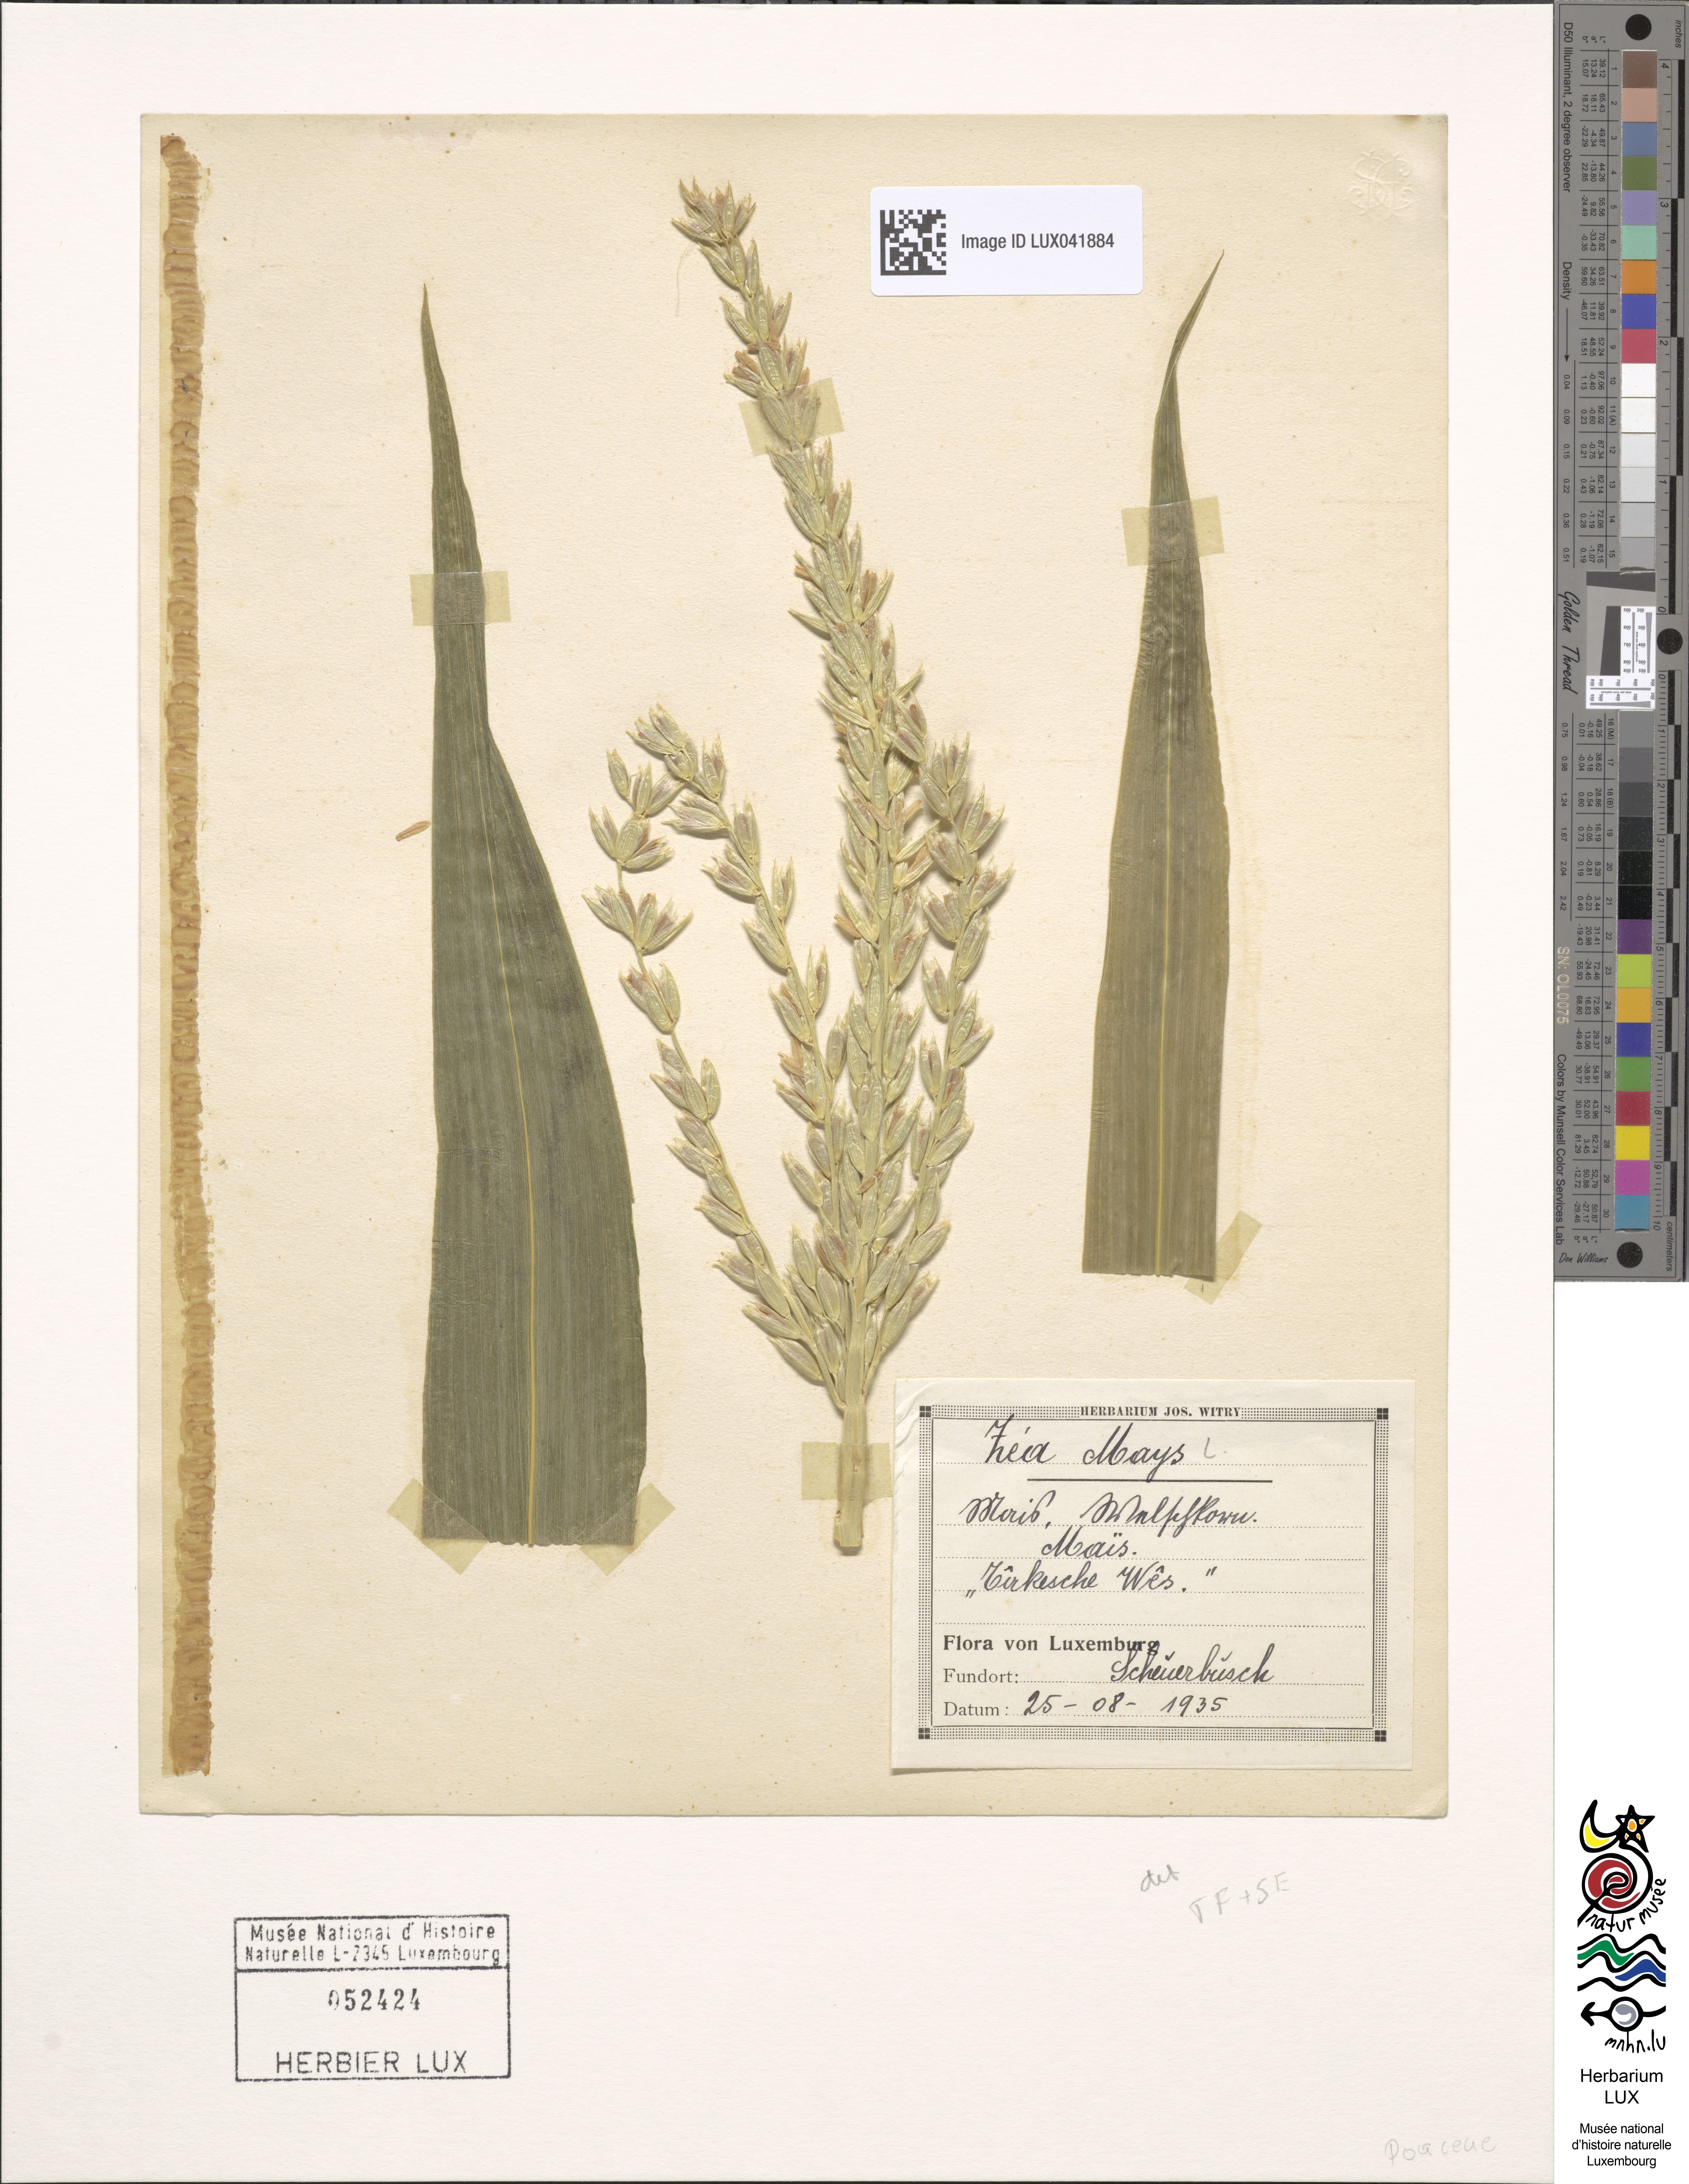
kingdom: Plantae
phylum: Tracheophyta
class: Liliopsida
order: Poales
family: Poaceae
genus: Zea
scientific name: Zea mays
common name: Maize
